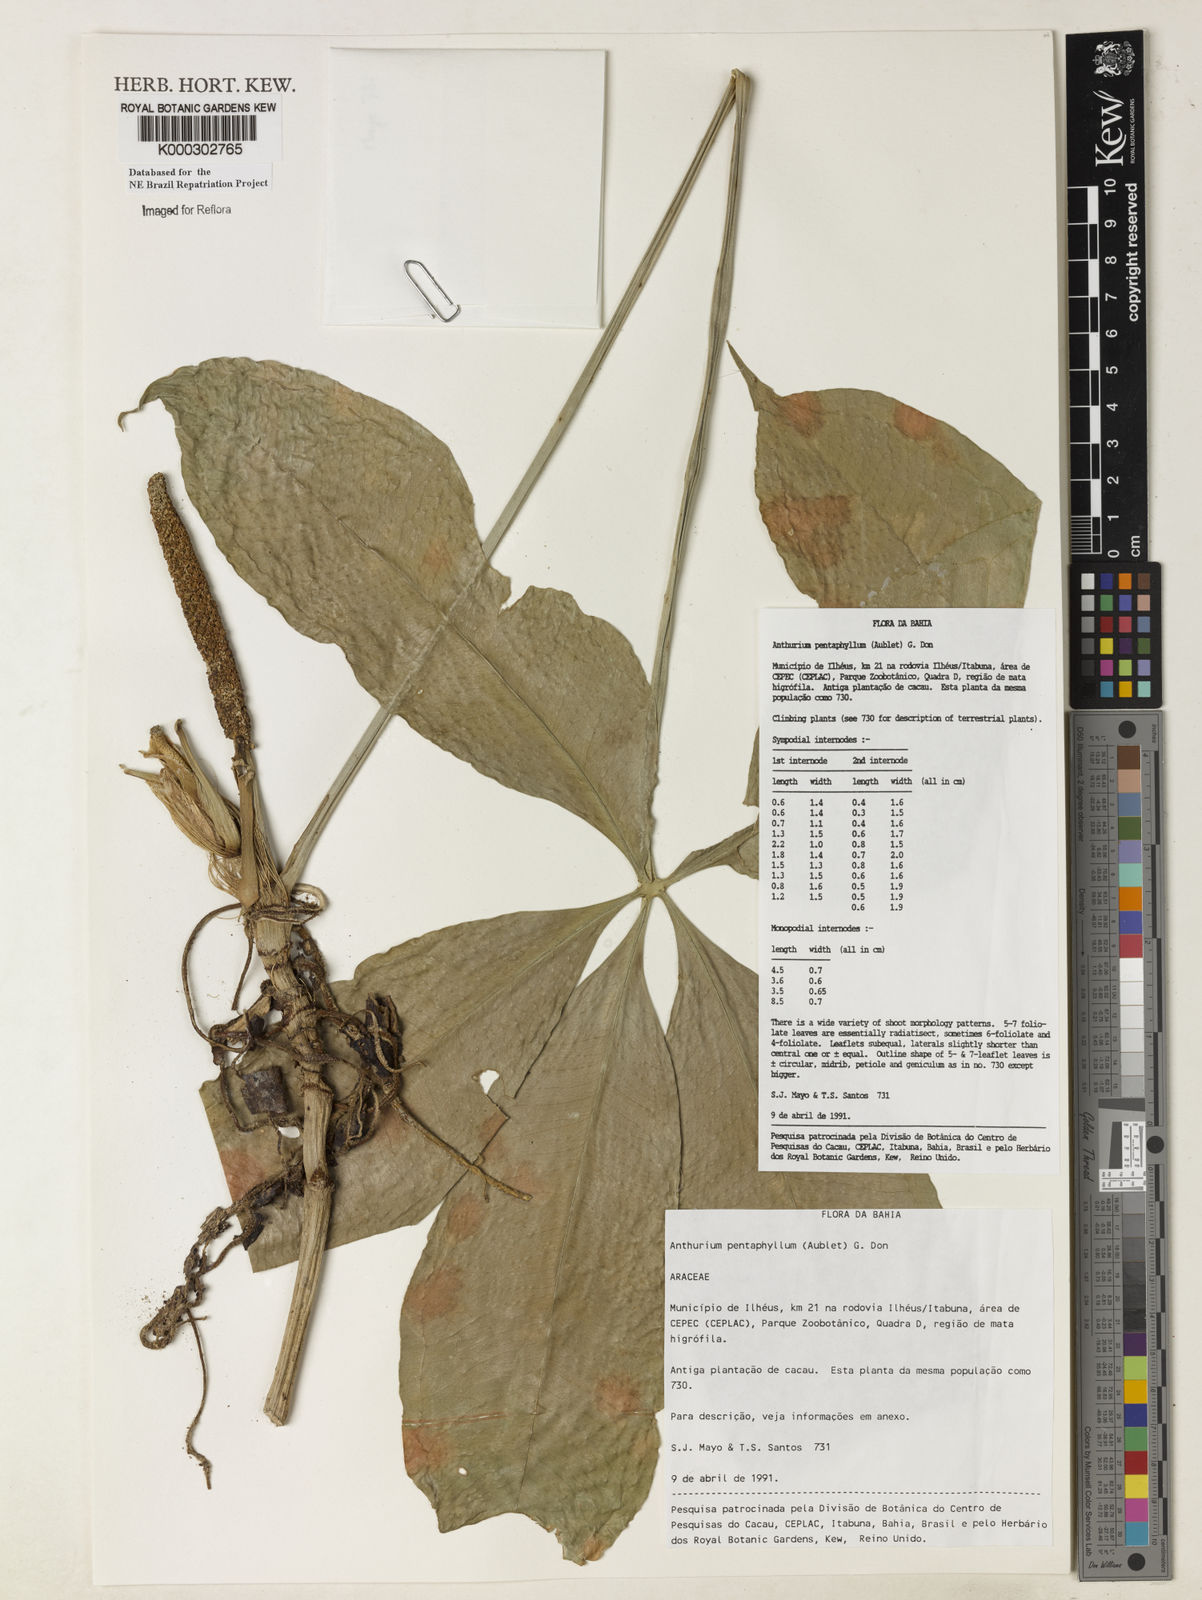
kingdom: Plantae
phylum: Tracheophyta
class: Liliopsida
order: Alismatales
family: Araceae
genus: Anthurium
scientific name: Anthurium pentaphyllum
